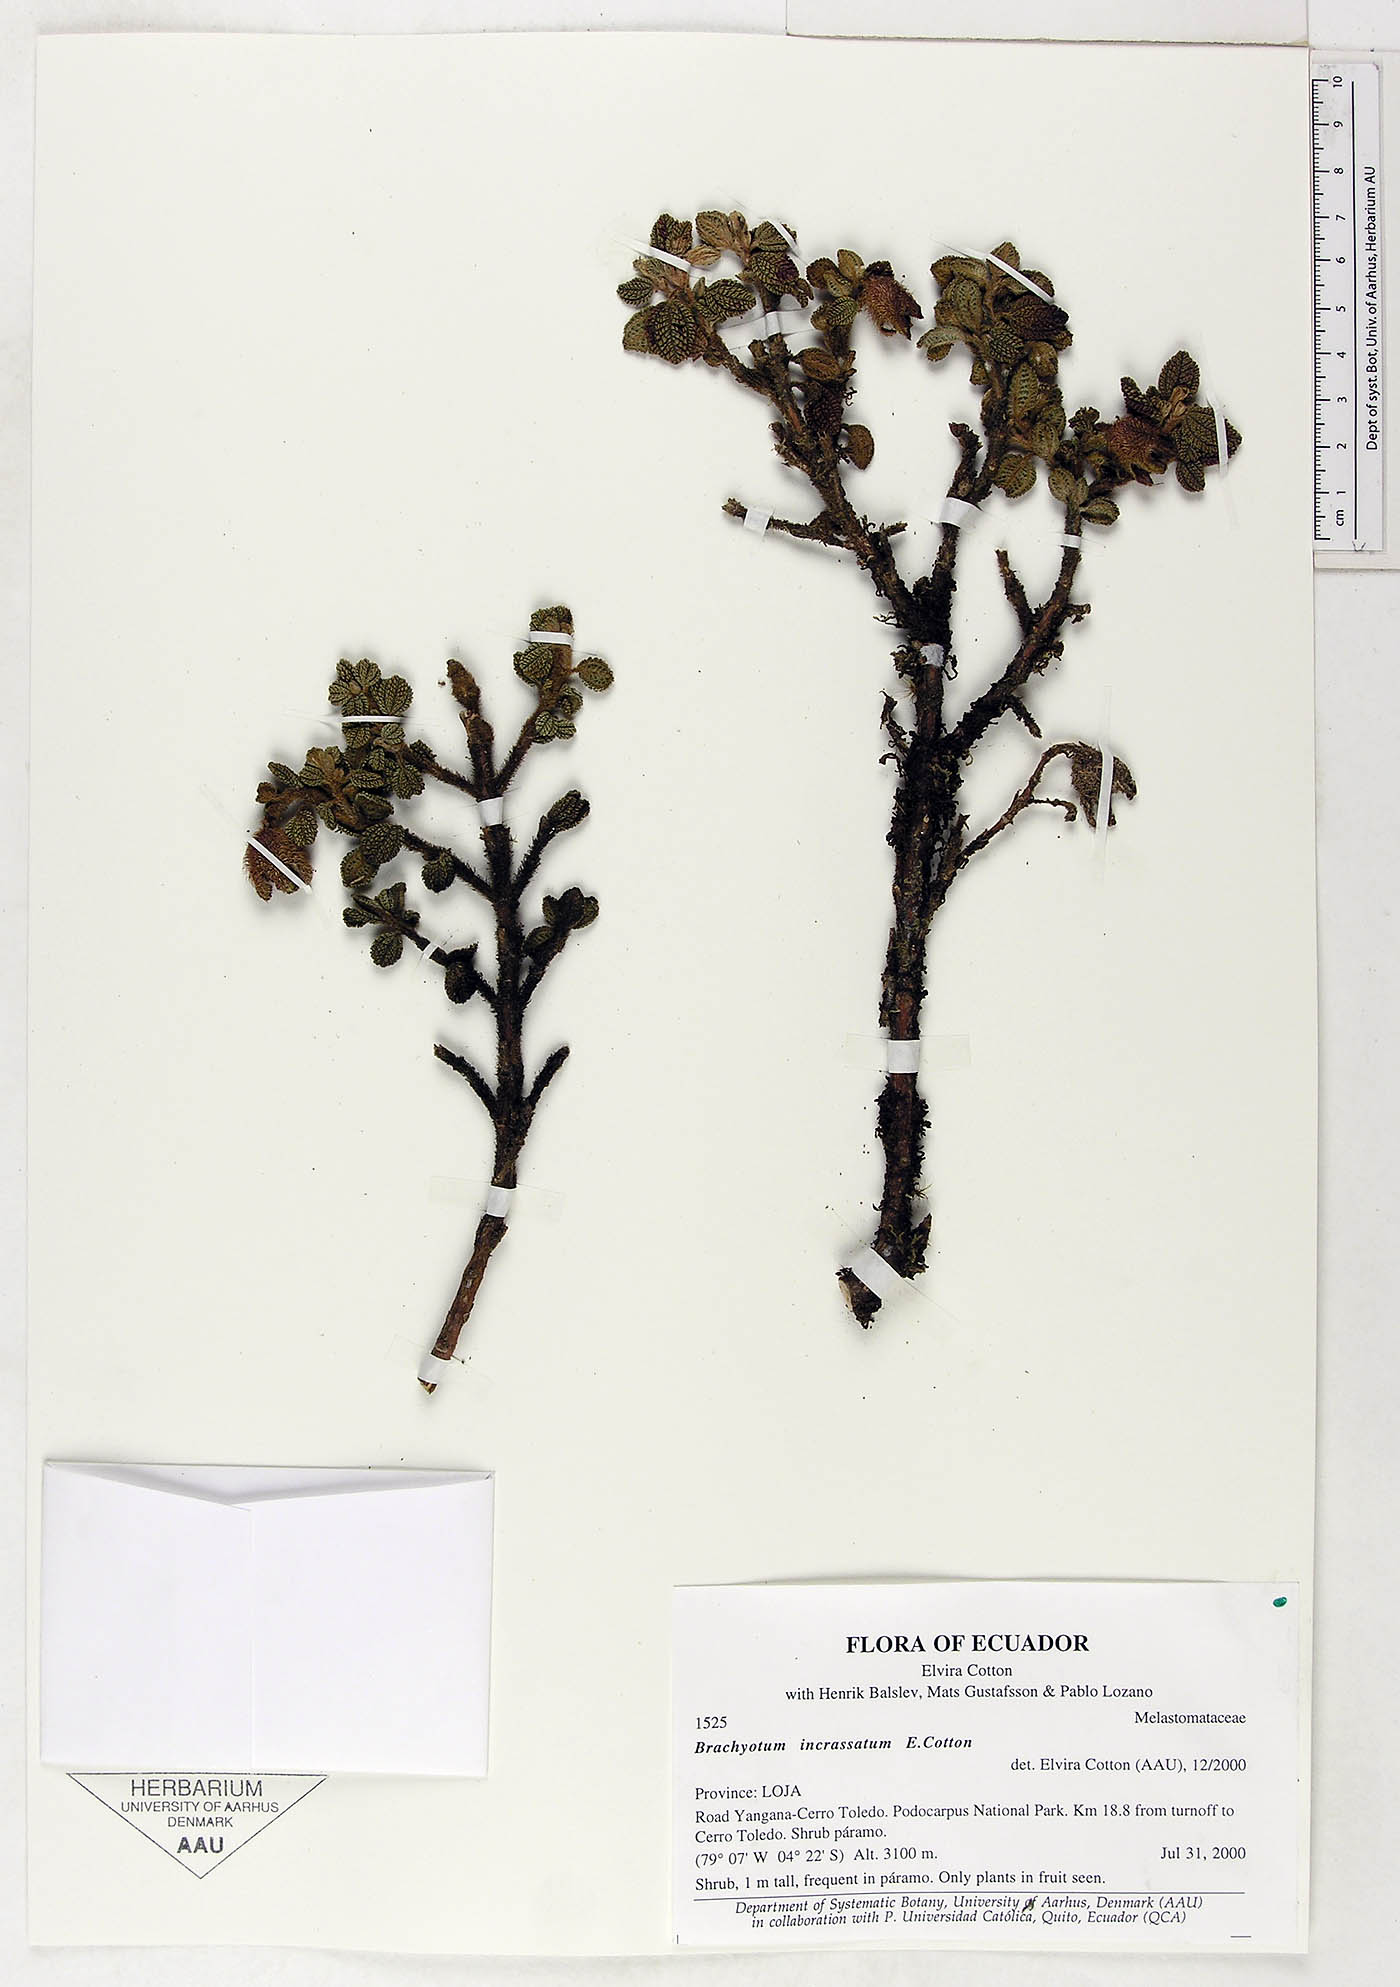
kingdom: Plantae
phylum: Tracheophyta
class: Magnoliopsida
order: Myrtales
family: Melastomataceae
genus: Brachyotum
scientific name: Brachyotum incrassatum
